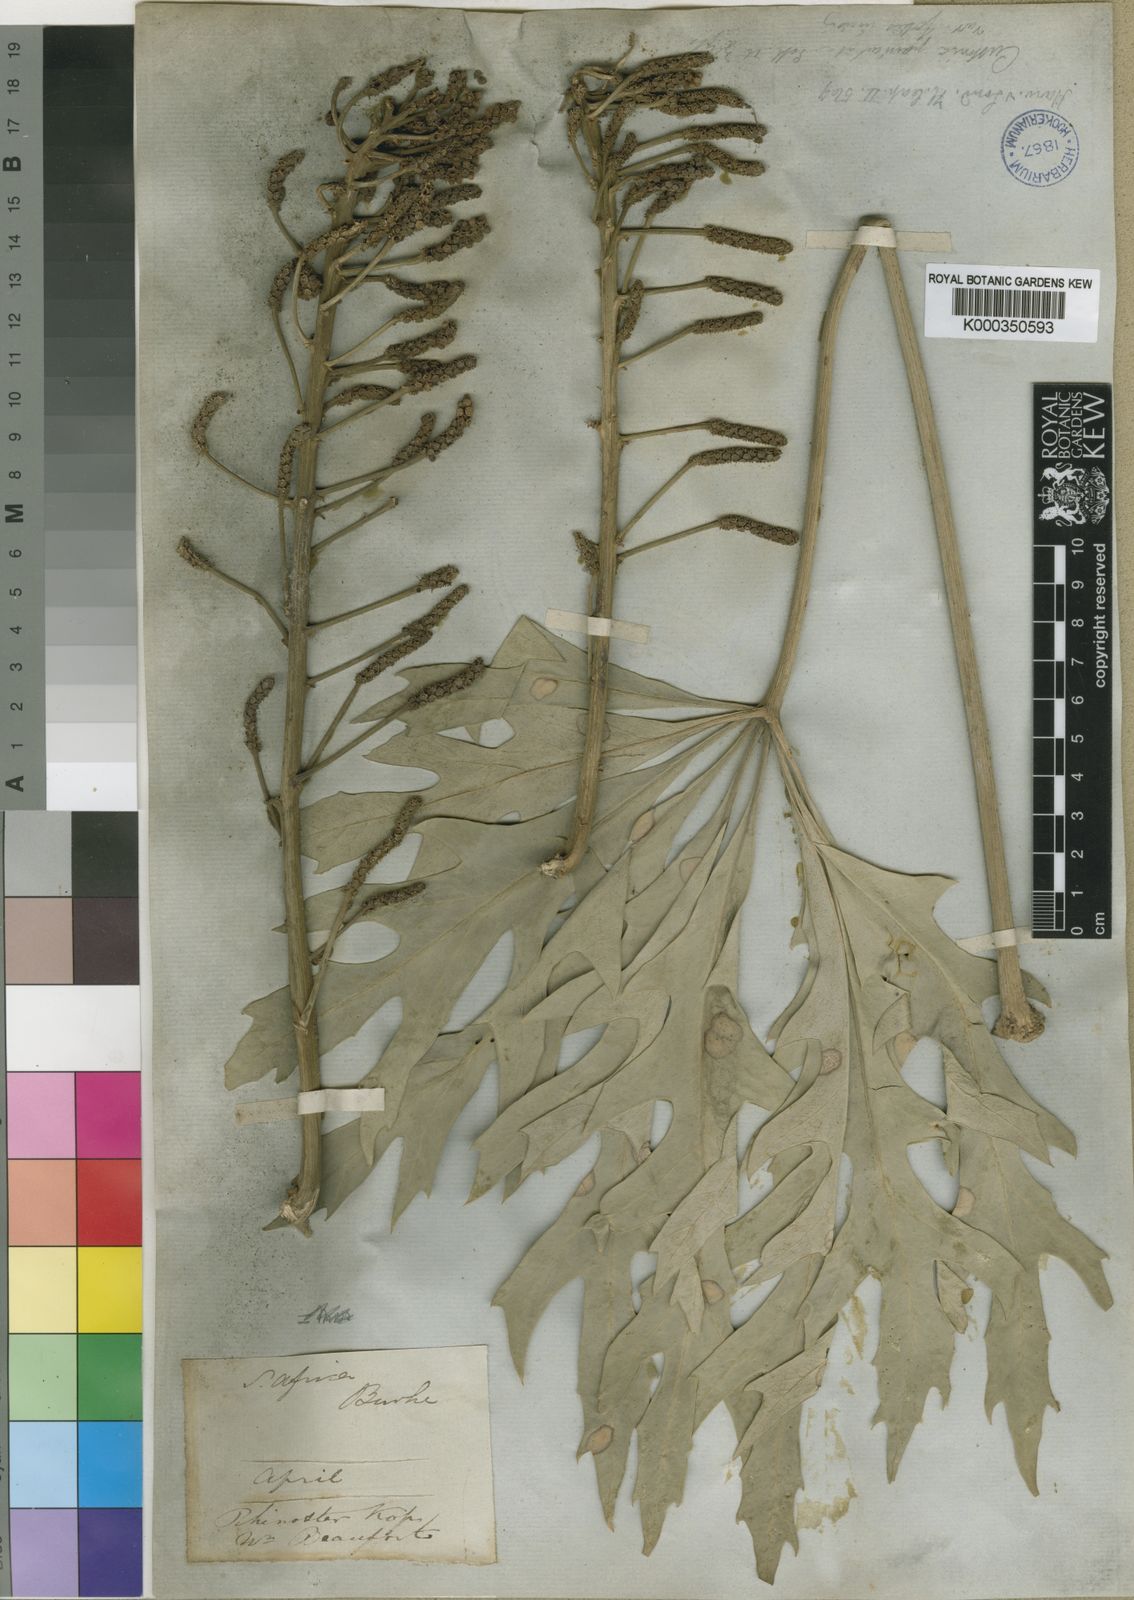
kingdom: Plantae
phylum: Tracheophyta
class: Magnoliopsida
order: Apiales
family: Araliaceae
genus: Cussonia
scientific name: Cussonia paniculata
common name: Cabbagetree
